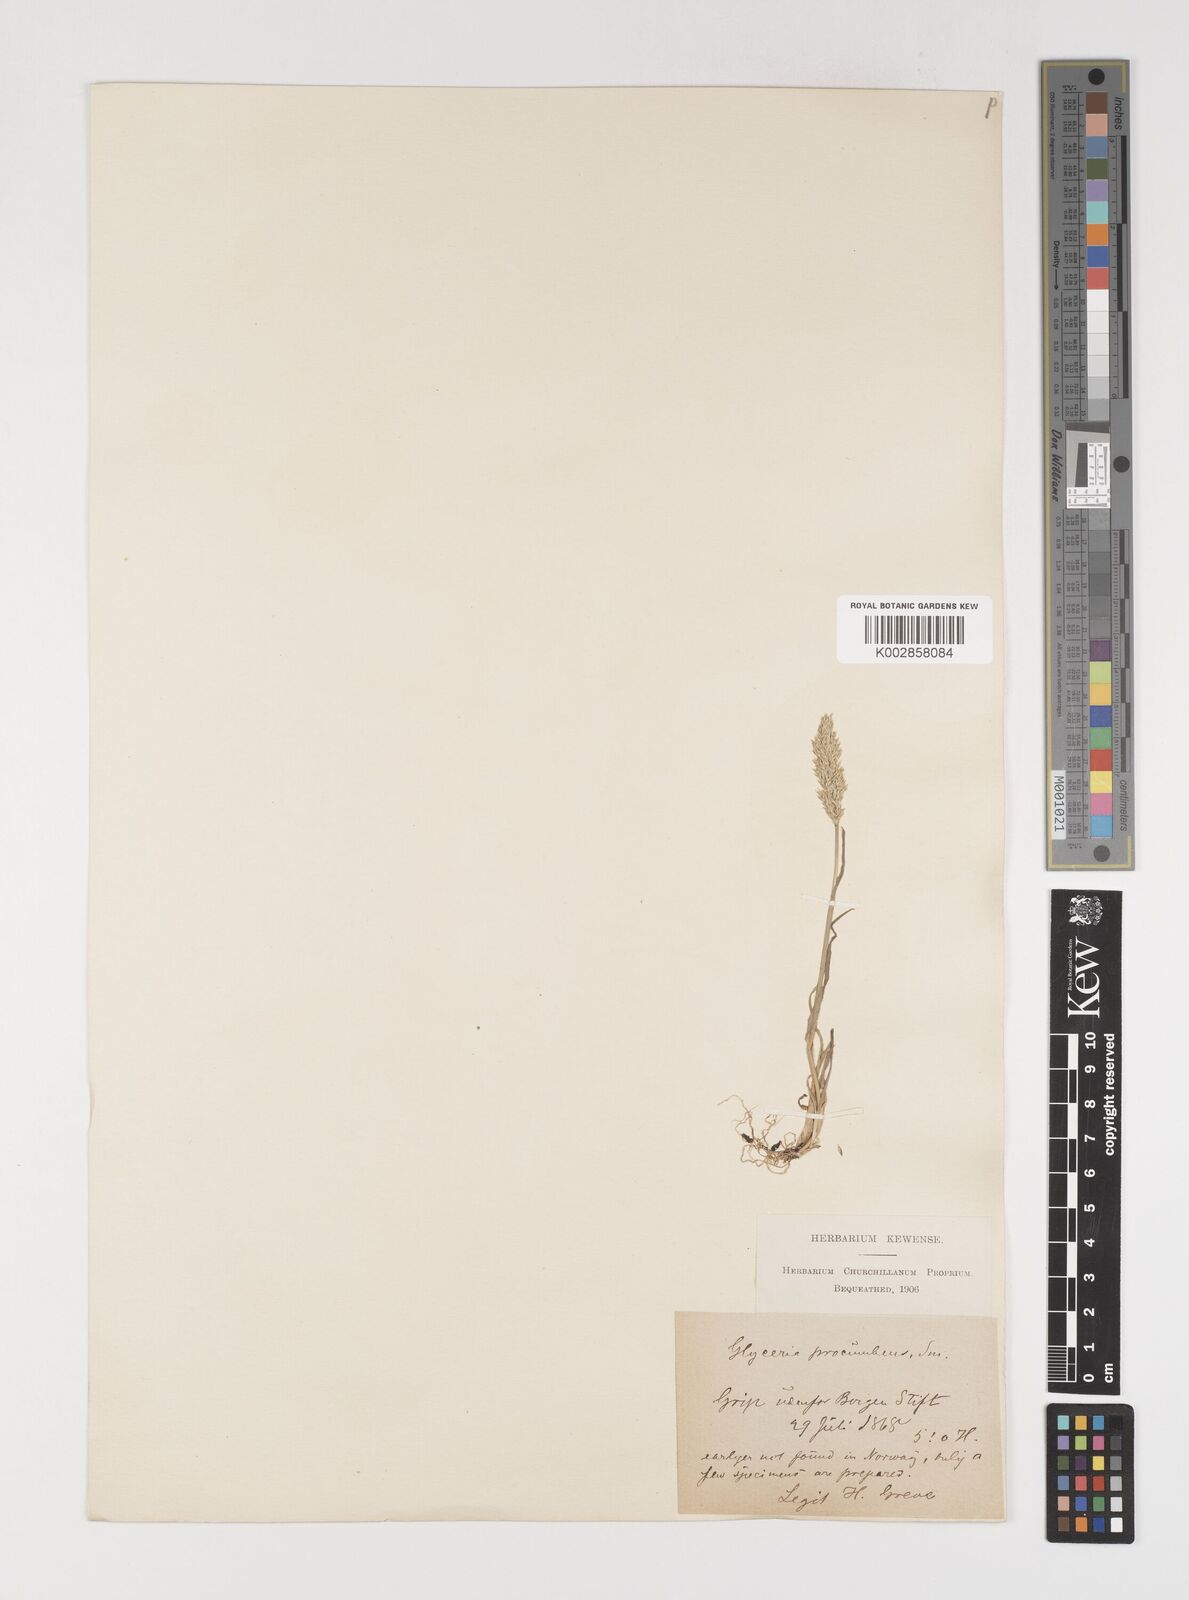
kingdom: Plantae
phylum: Tracheophyta
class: Liliopsida
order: Poales
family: Poaceae
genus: Puccinellia
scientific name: Puccinellia rupestris
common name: Stiff saltmarsh-grass
